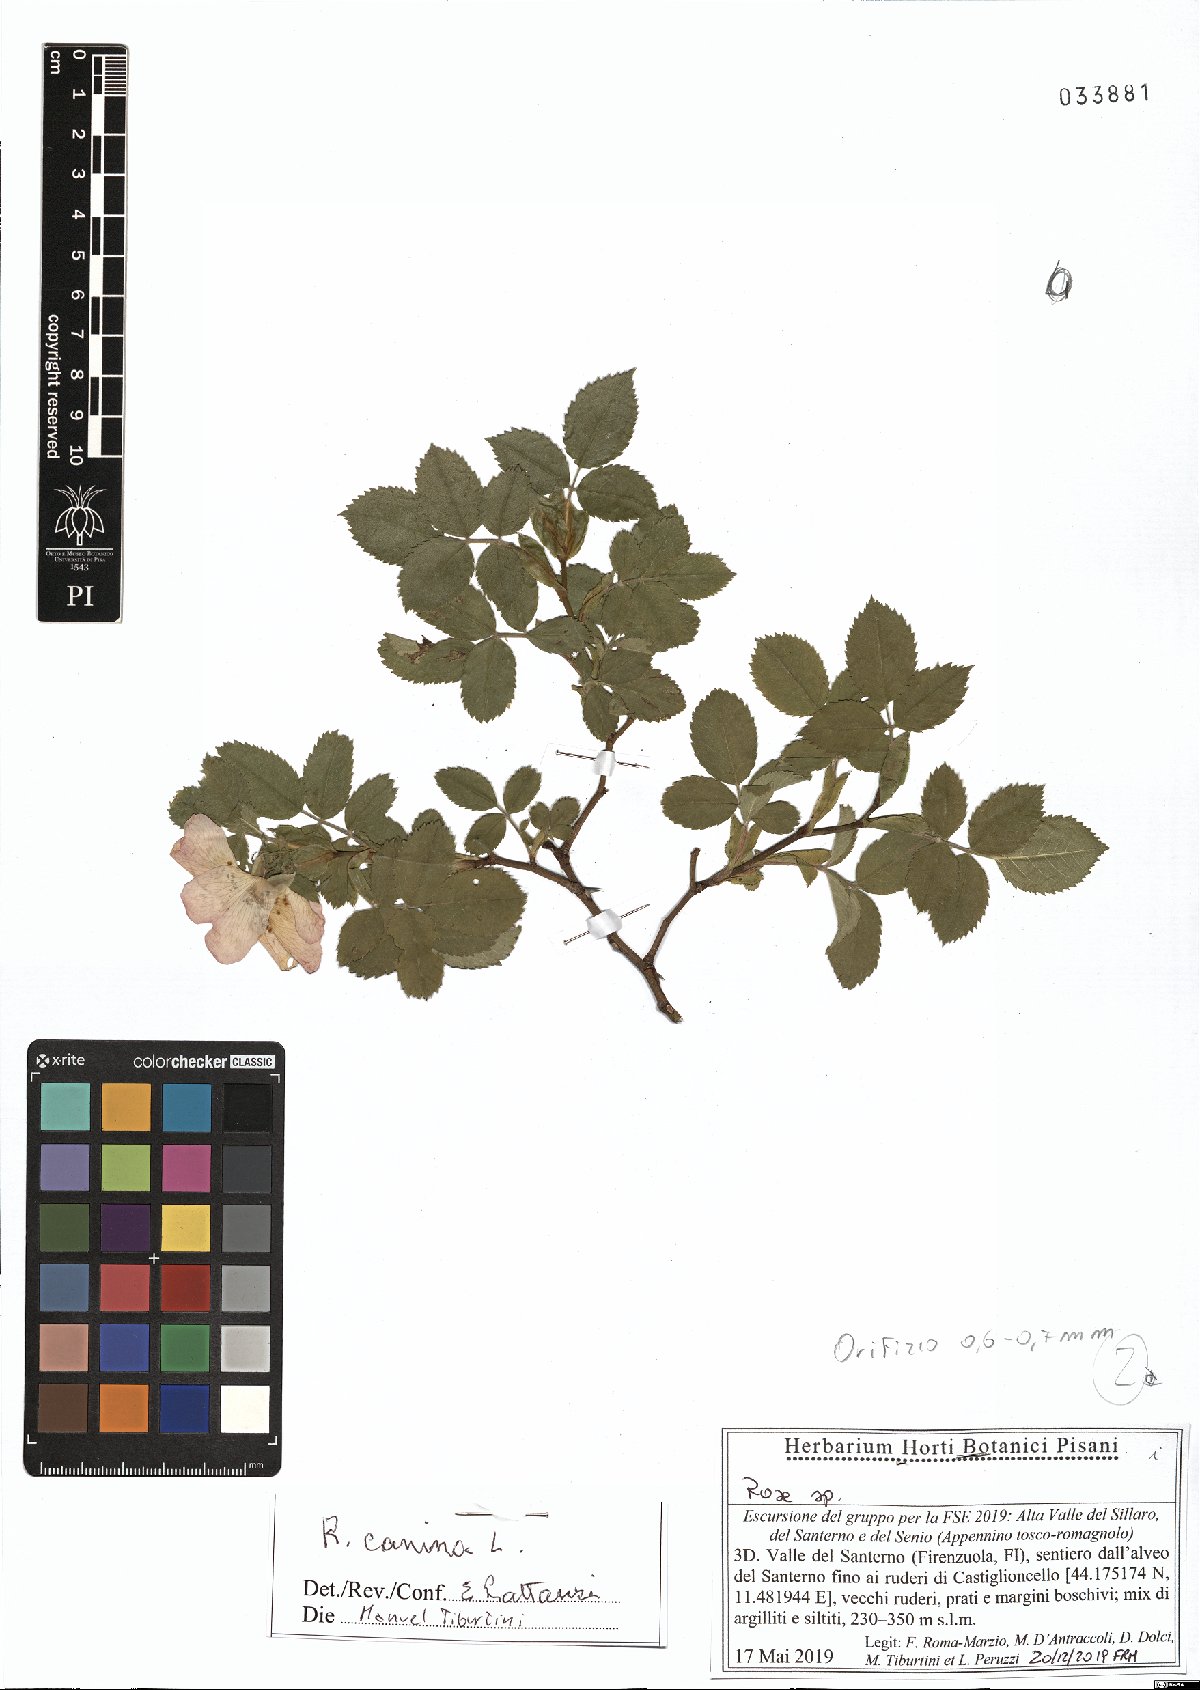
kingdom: Plantae
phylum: Tracheophyta
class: Magnoliopsida
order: Rosales
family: Rosaceae
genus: Rosa
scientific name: Rosa canina
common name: Dog rose
